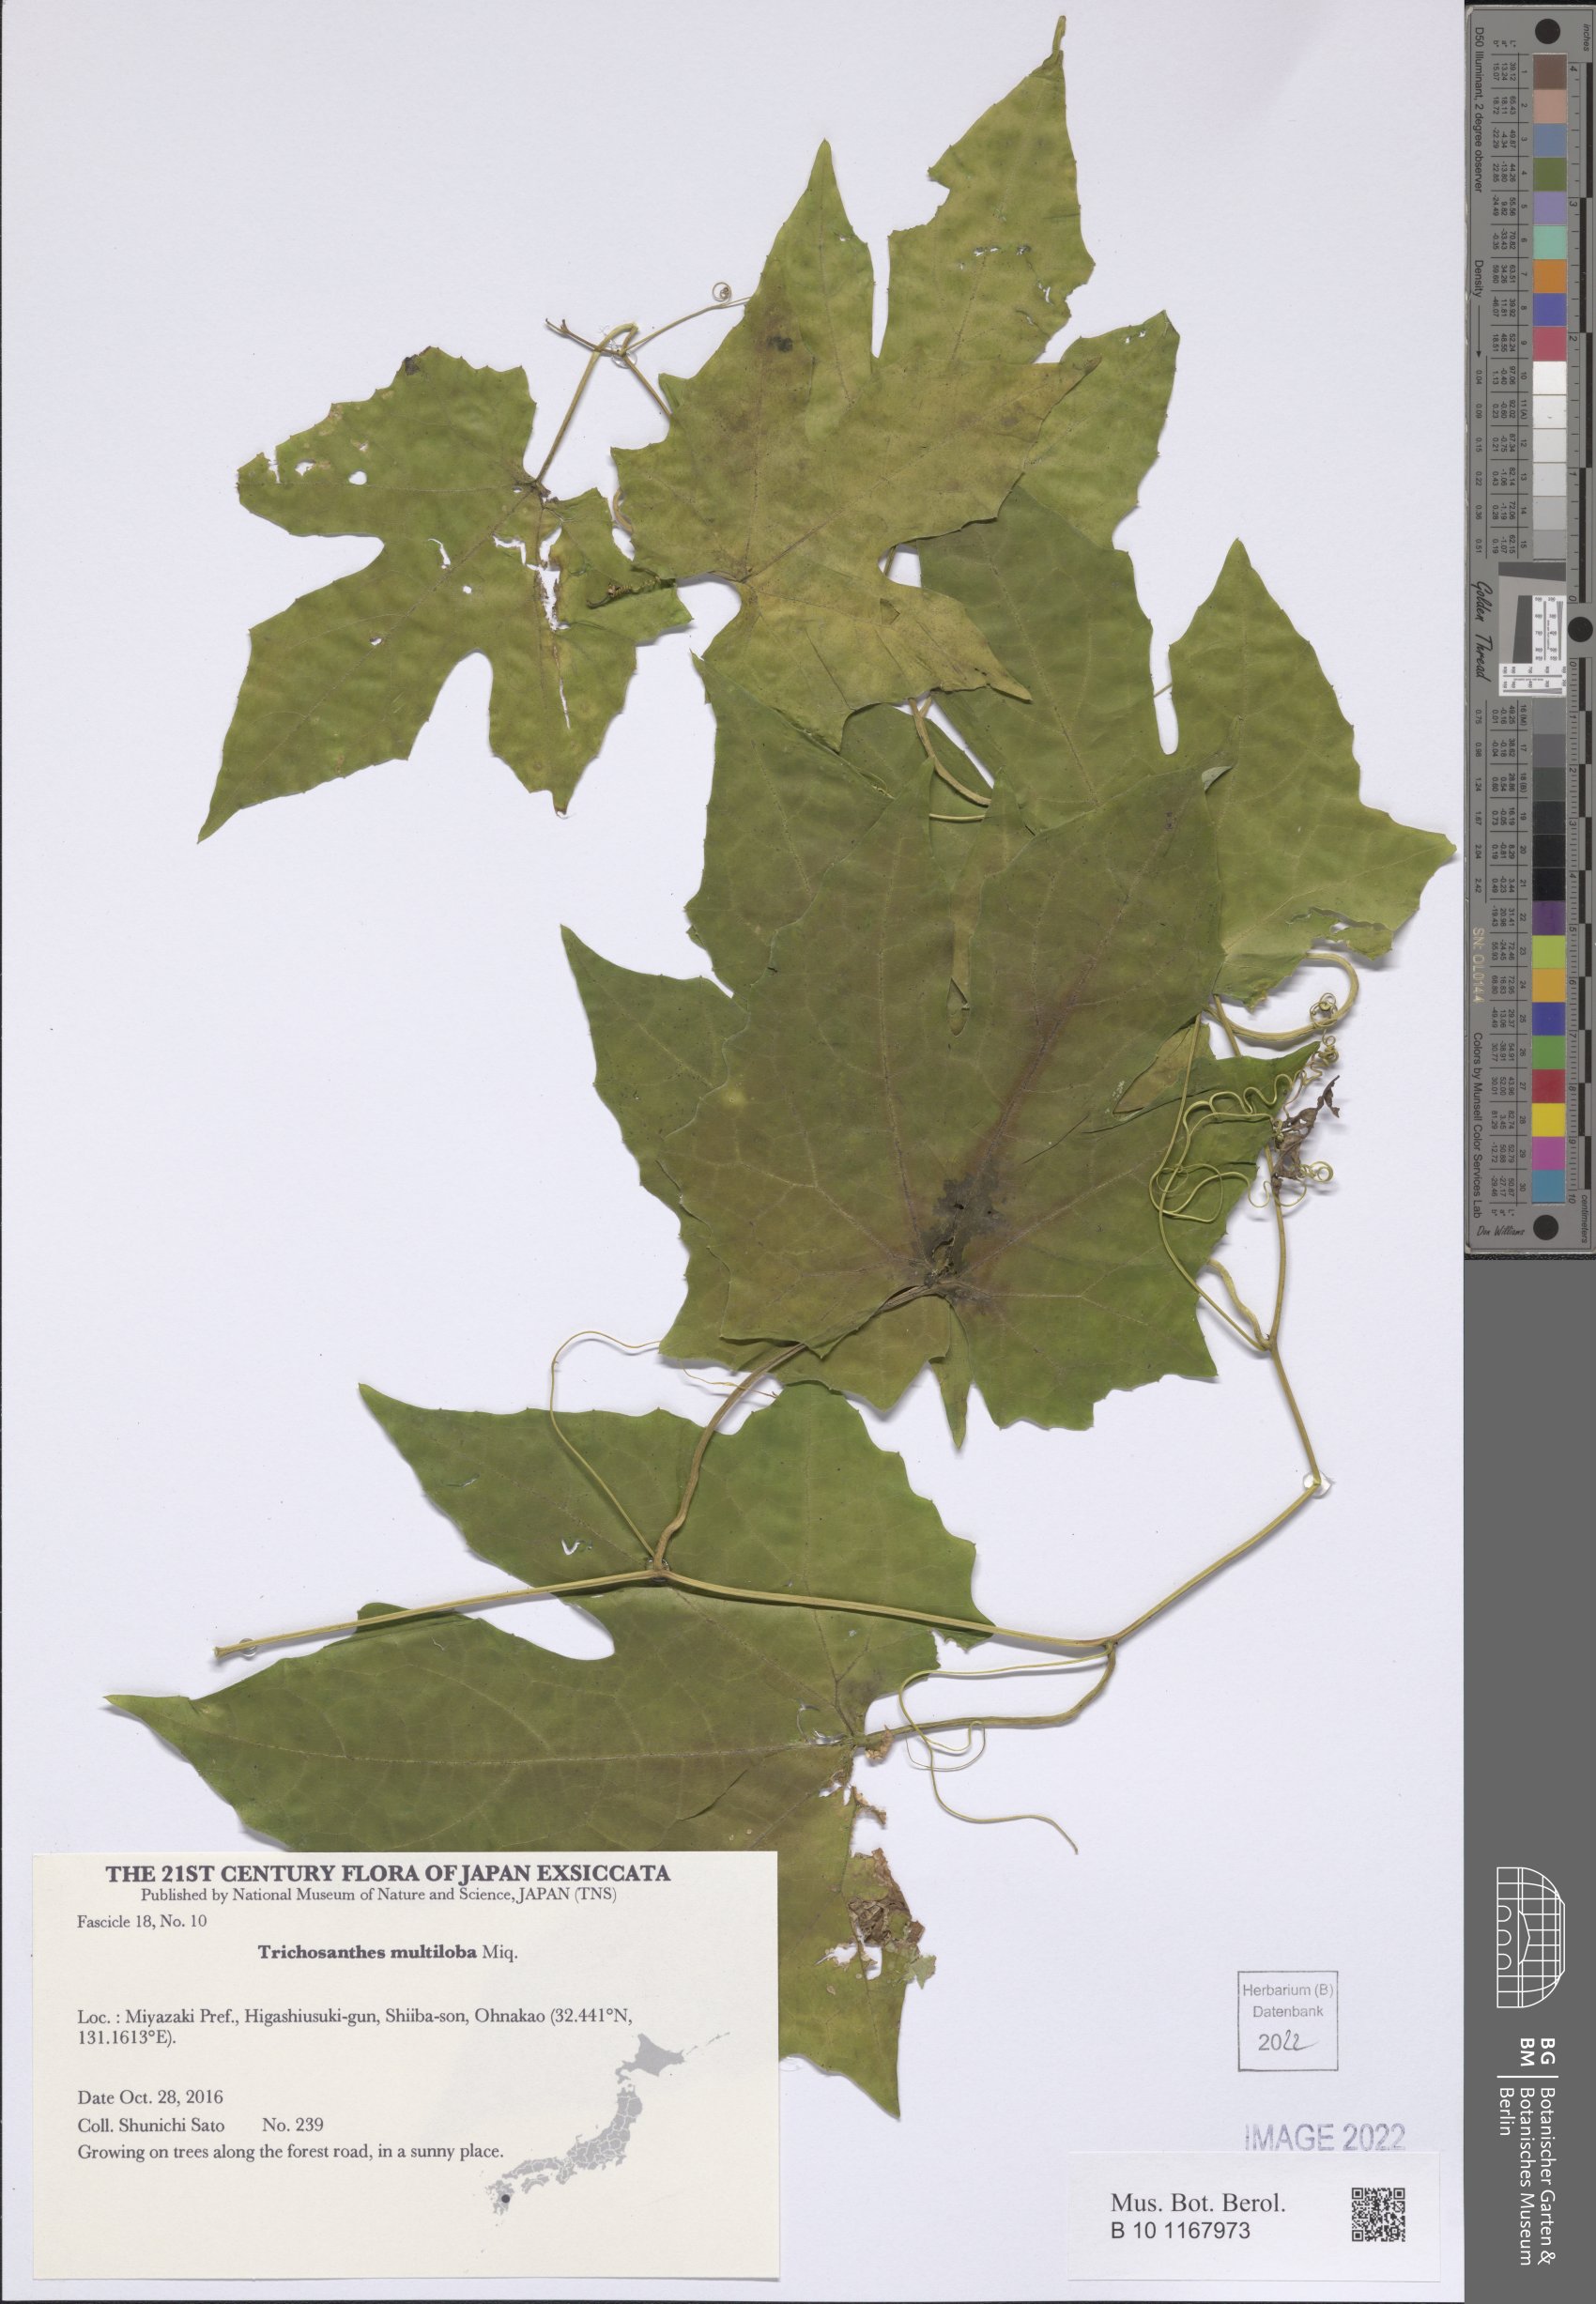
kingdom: Plantae
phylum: Tracheophyta
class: Magnoliopsida
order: Cucurbitales
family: Cucurbitaceae
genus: Trichosanthes
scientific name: Trichosanthes multiloba
